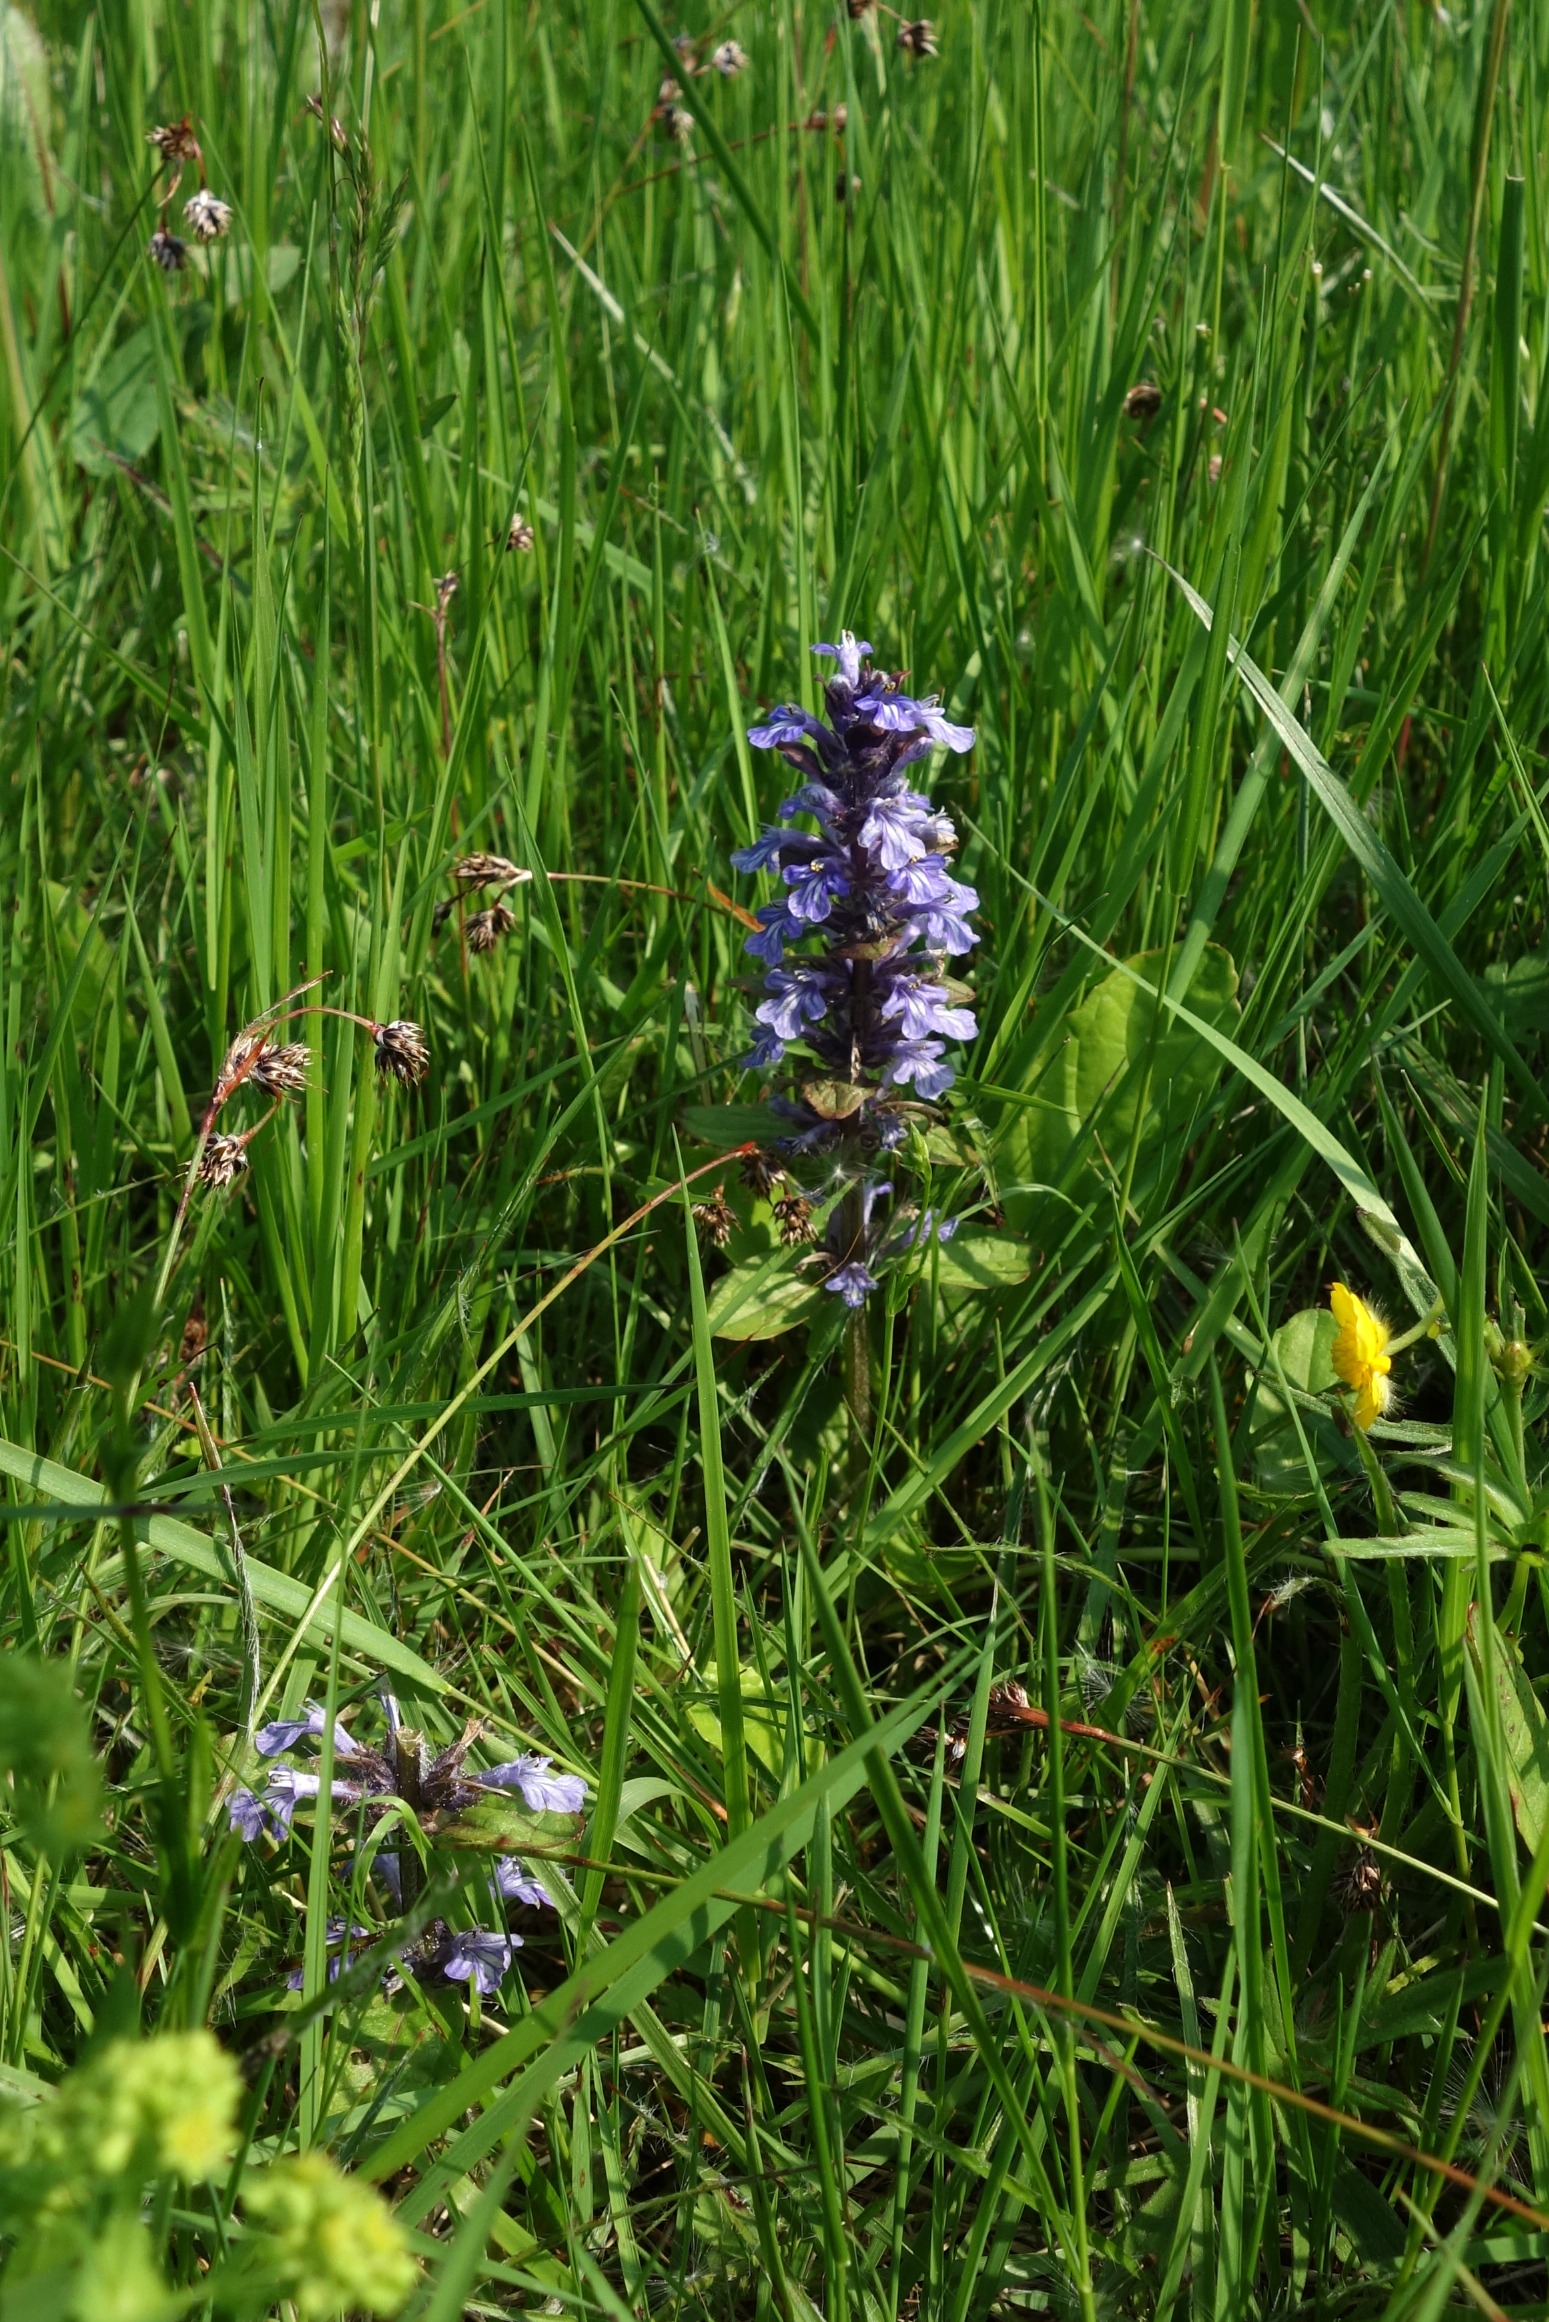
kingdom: Plantae
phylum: Tracheophyta
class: Magnoliopsida
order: Lamiales
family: Lamiaceae
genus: Ajuga
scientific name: Ajuga reptans
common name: Krybende læbeløs
